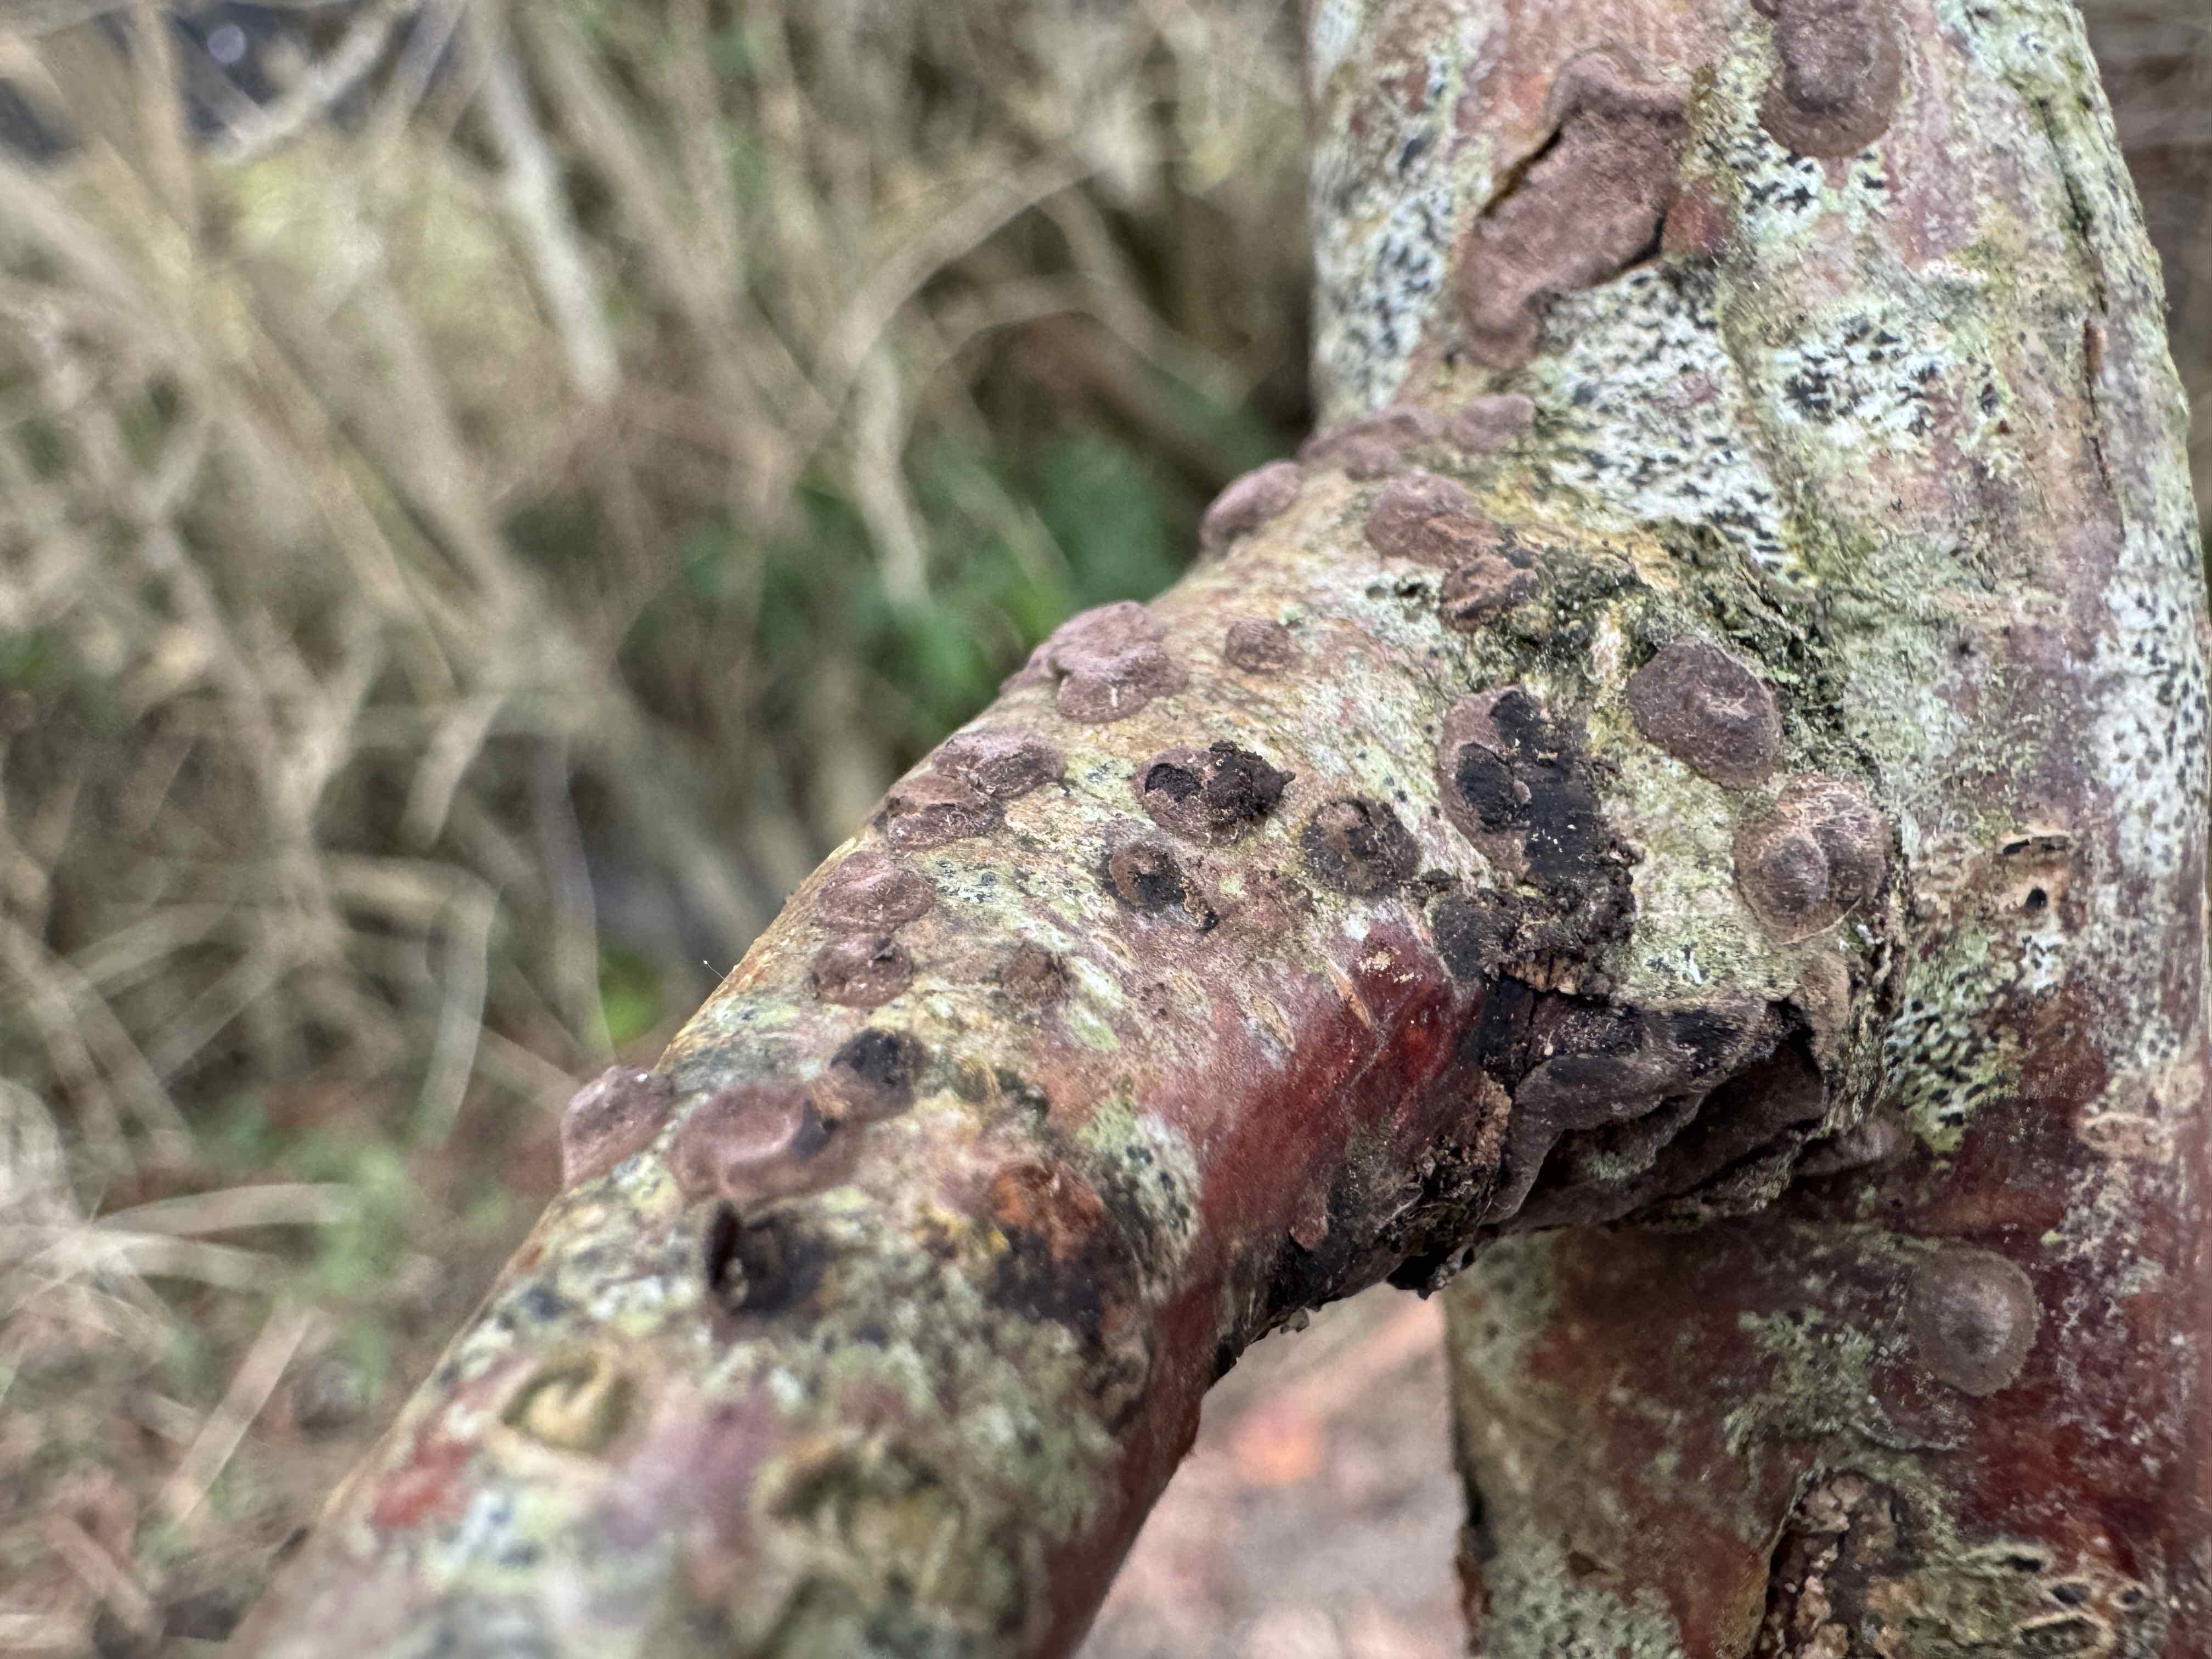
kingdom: Fungi
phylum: Ascomycota
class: Sordariomycetes
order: Xylariales
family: Hypoxylaceae
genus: Hypoxylon
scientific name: Hypoxylon fuscum
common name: kegleformet kulbær
